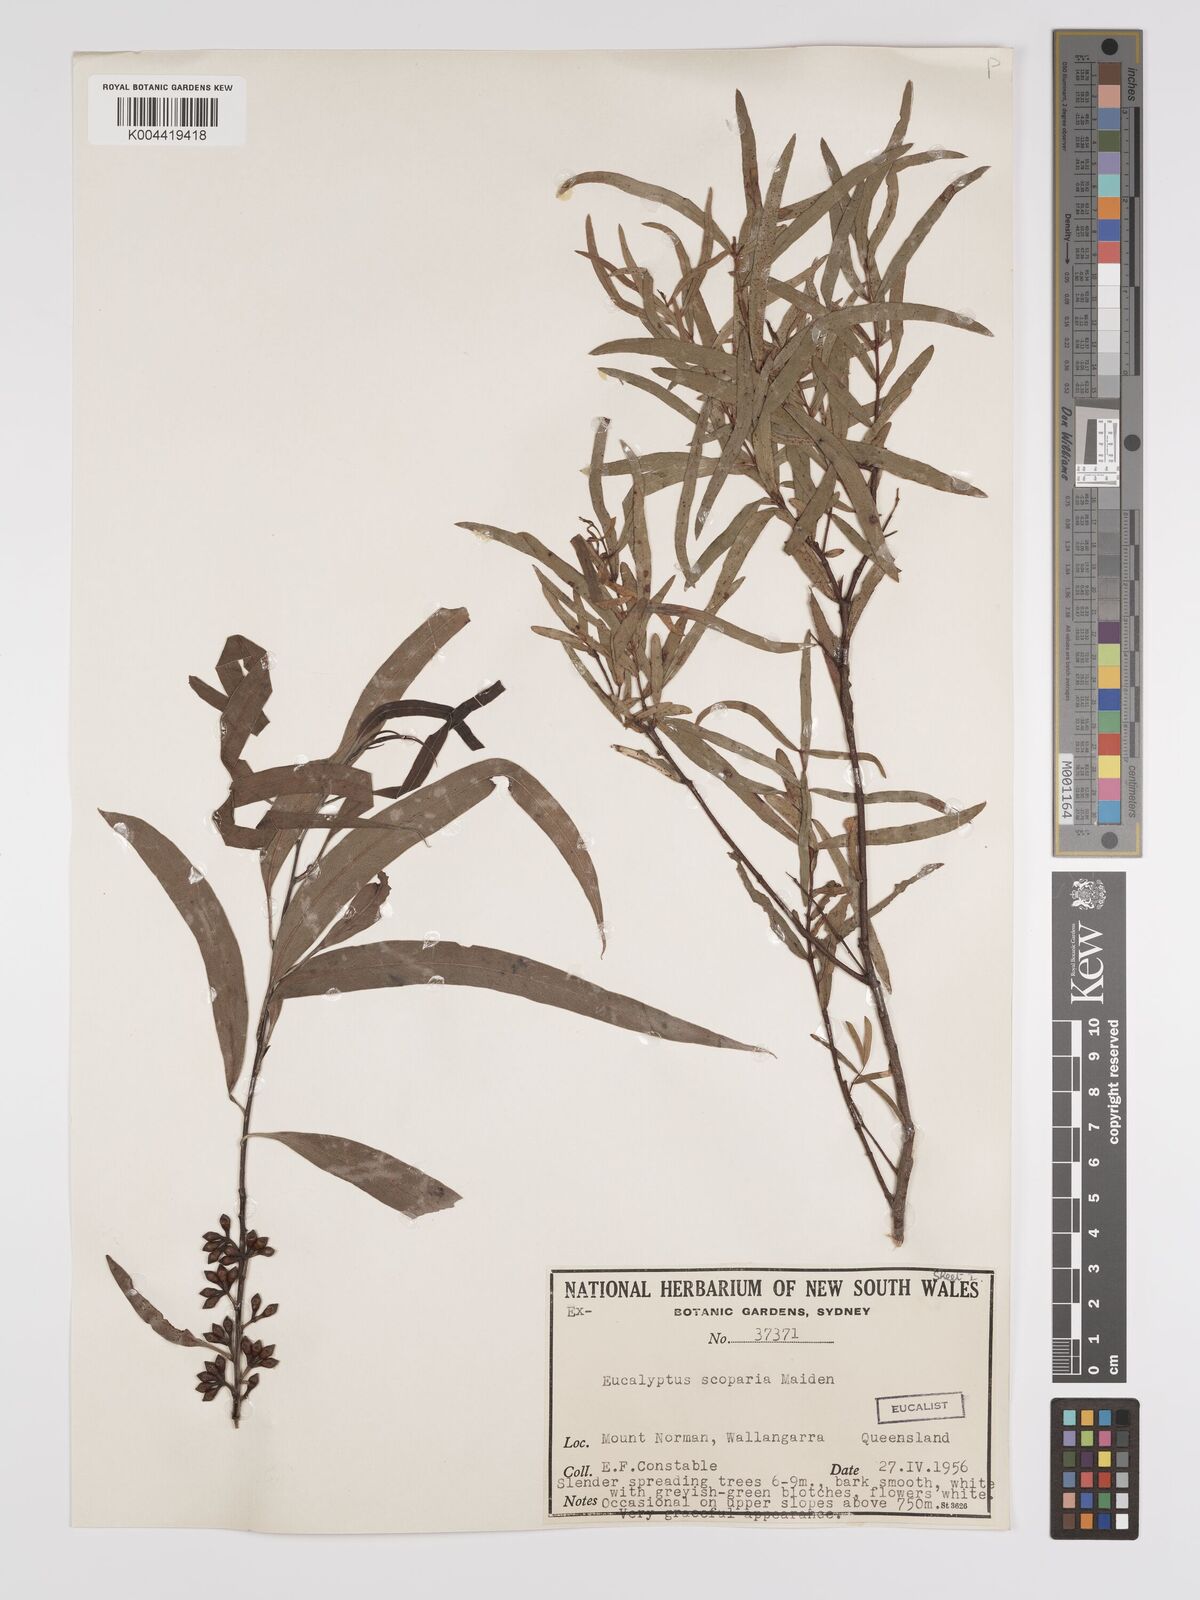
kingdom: Plantae
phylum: Tracheophyta
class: Magnoliopsida
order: Myrtales
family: Myrtaceae
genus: Eucalyptus
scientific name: Eucalyptus scoparia
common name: Wallangarra white gum
